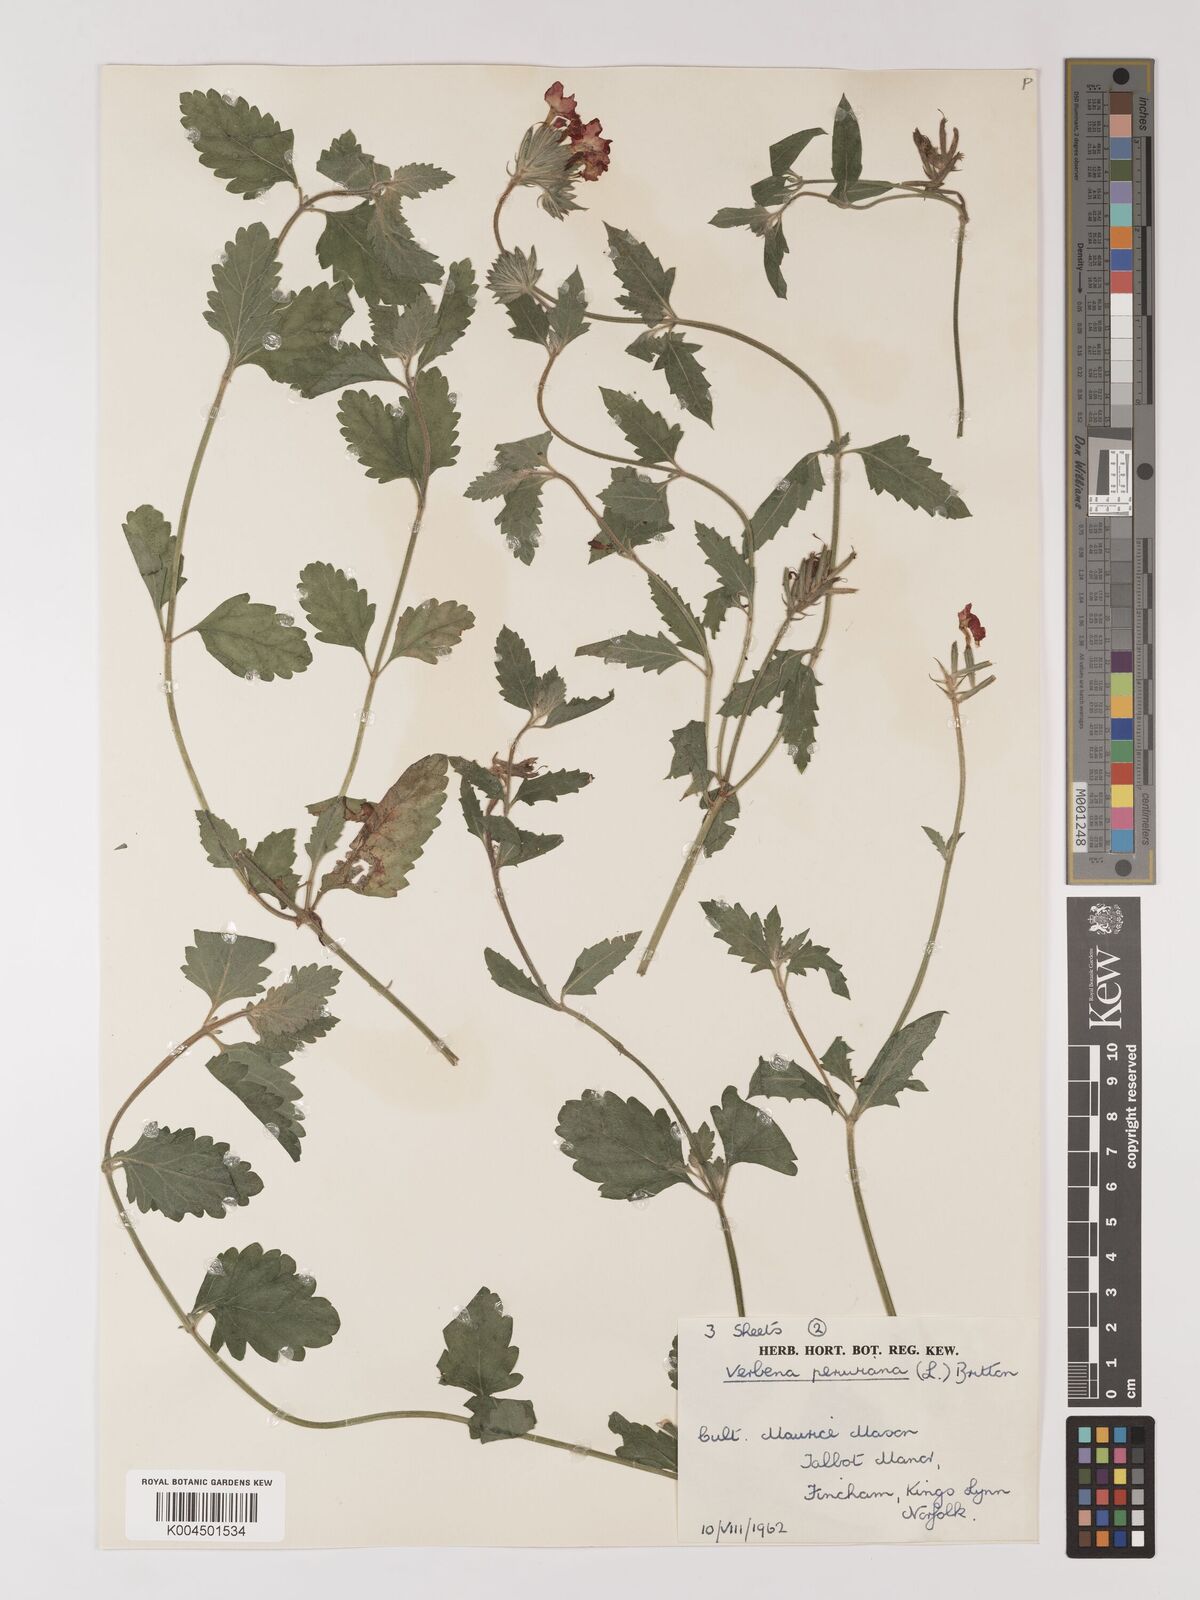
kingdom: Plantae
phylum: Tracheophyta
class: Magnoliopsida
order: Lamiales
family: Verbenaceae
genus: Verbena
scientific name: Verbena peruviana
